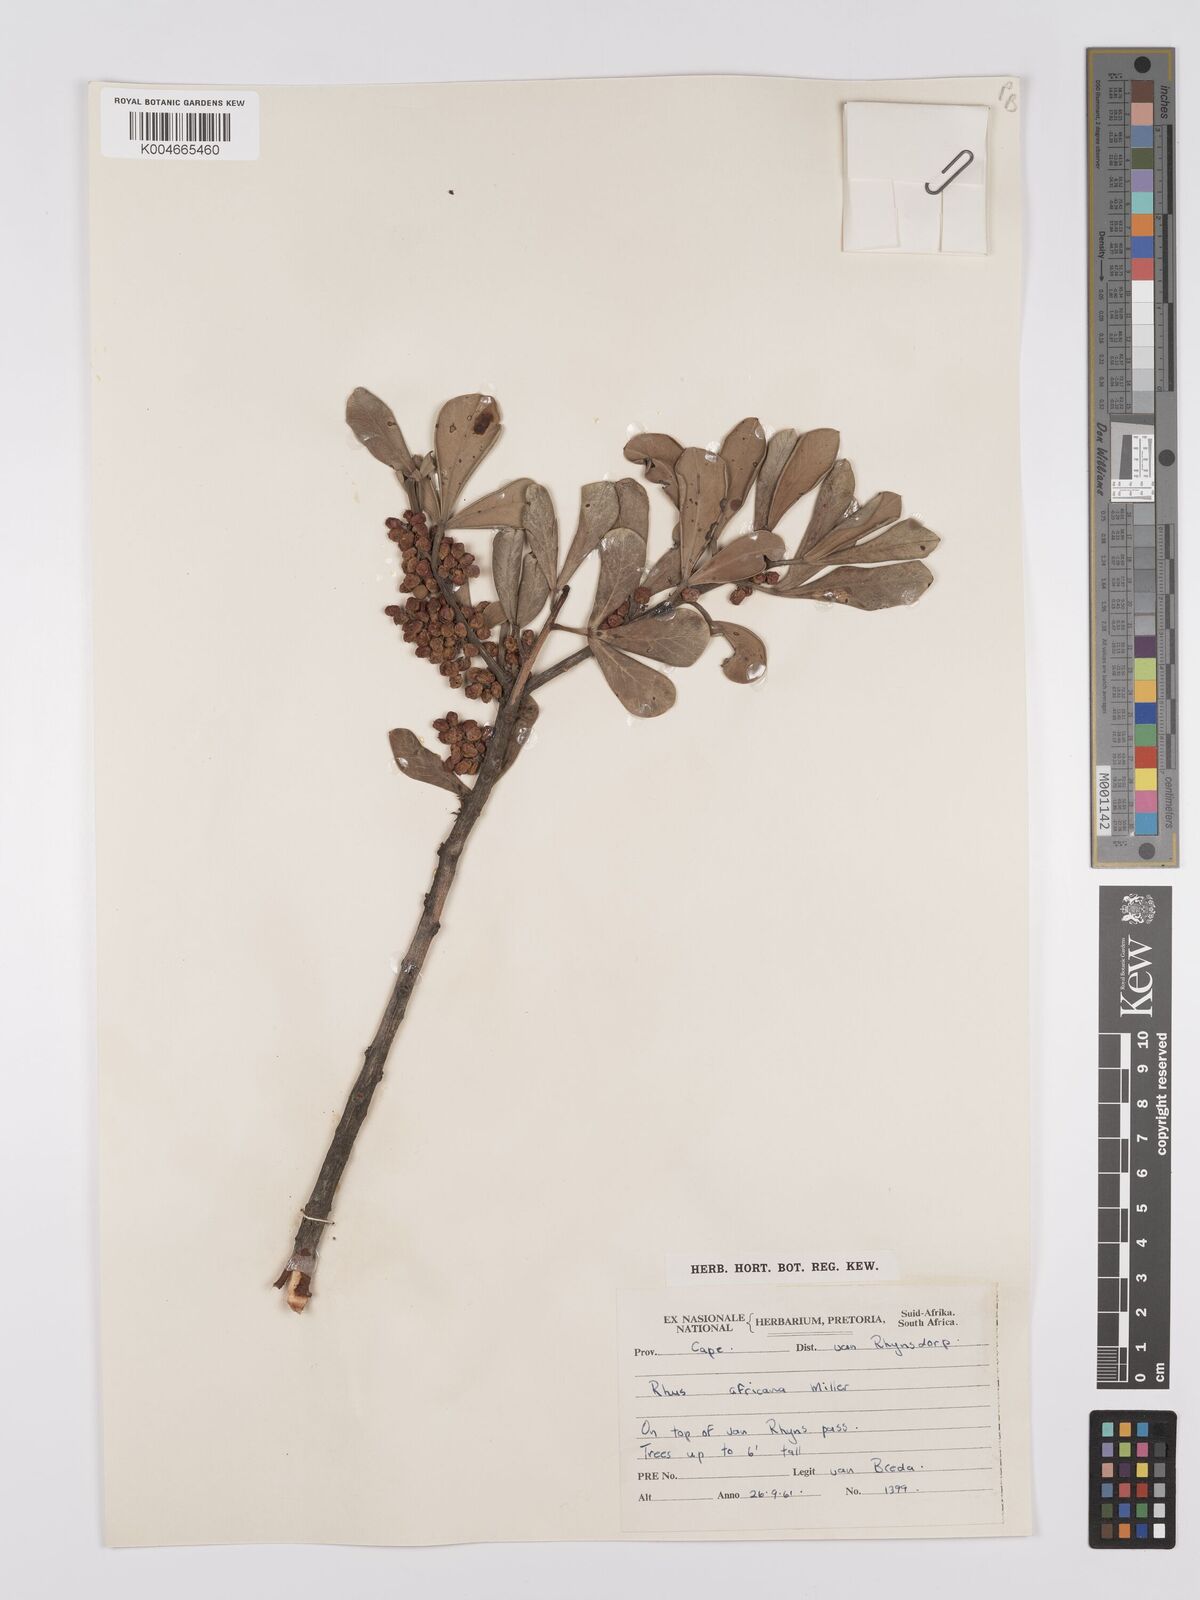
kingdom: Plantae
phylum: Tracheophyta
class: Magnoliopsida
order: Sapindales
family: Anacardiaceae
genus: Searsia
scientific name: Searsia lucida
